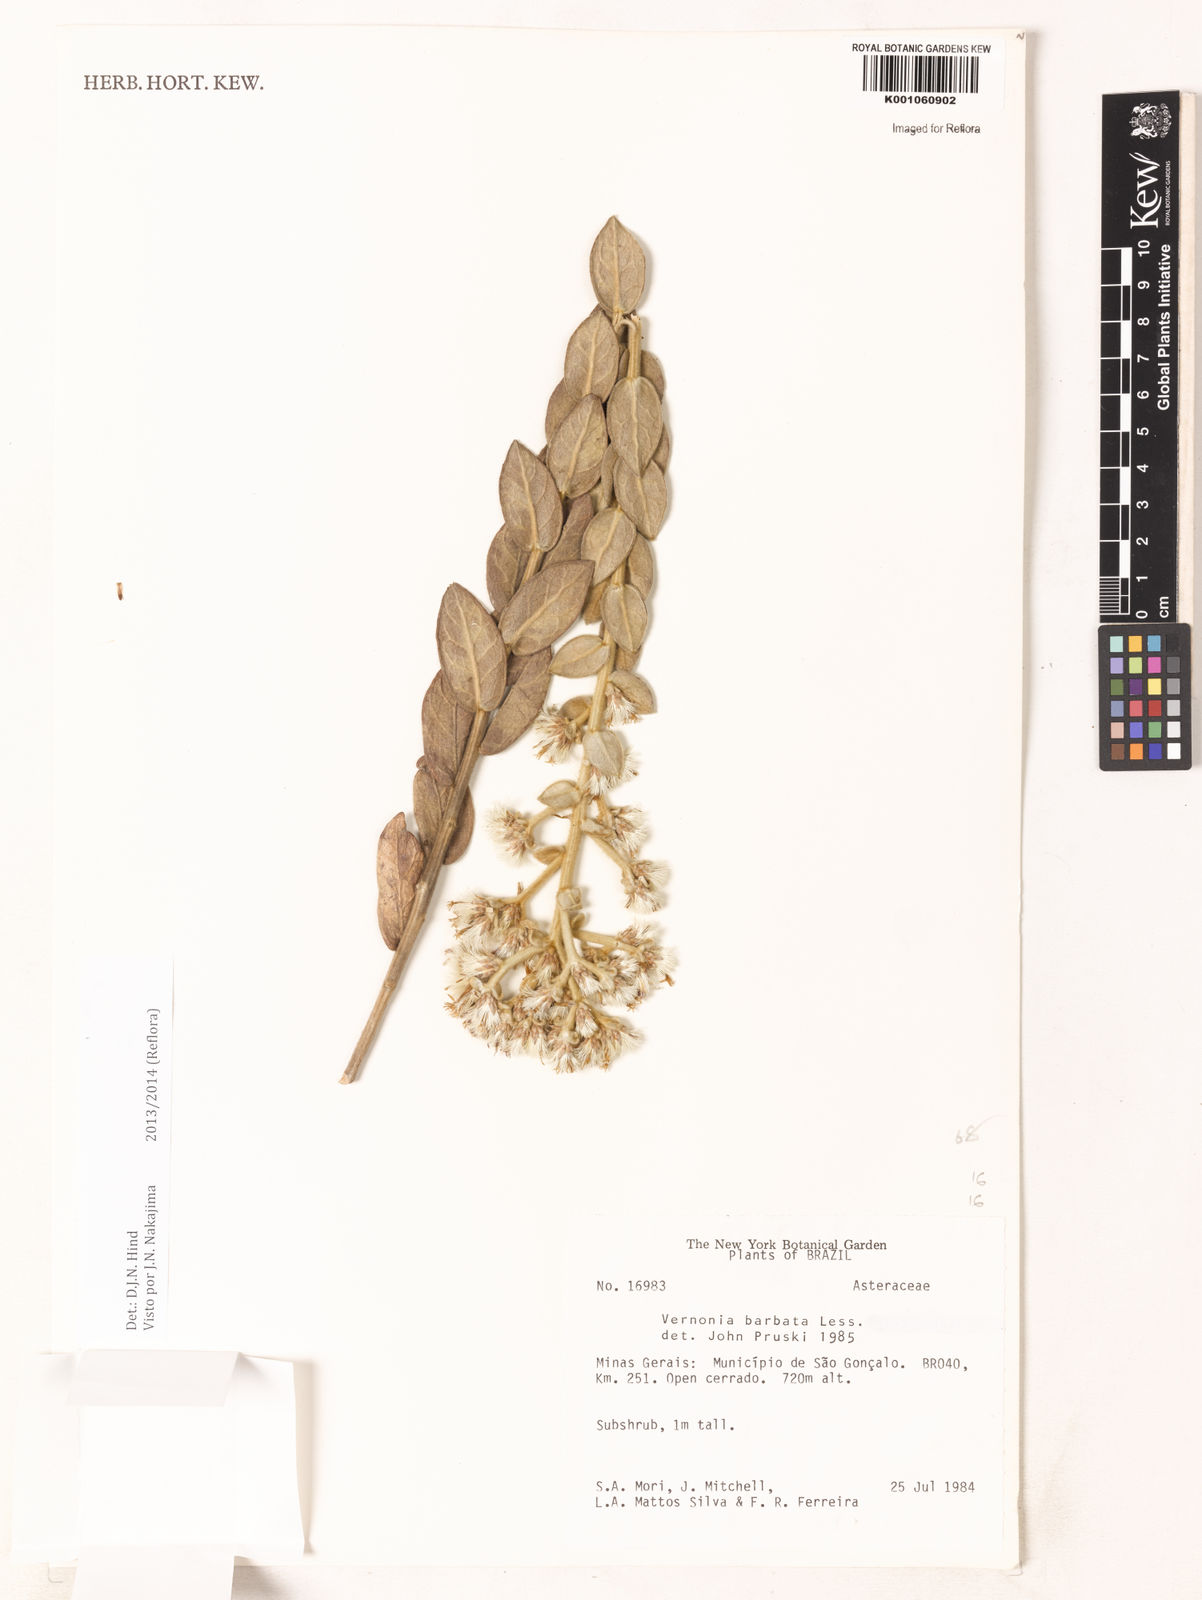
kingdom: Plantae
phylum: Tracheophyta
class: Magnoliopsida
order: Asterales
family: Asteraceae
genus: Lepidaploa
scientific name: Lepidaploa barbata
